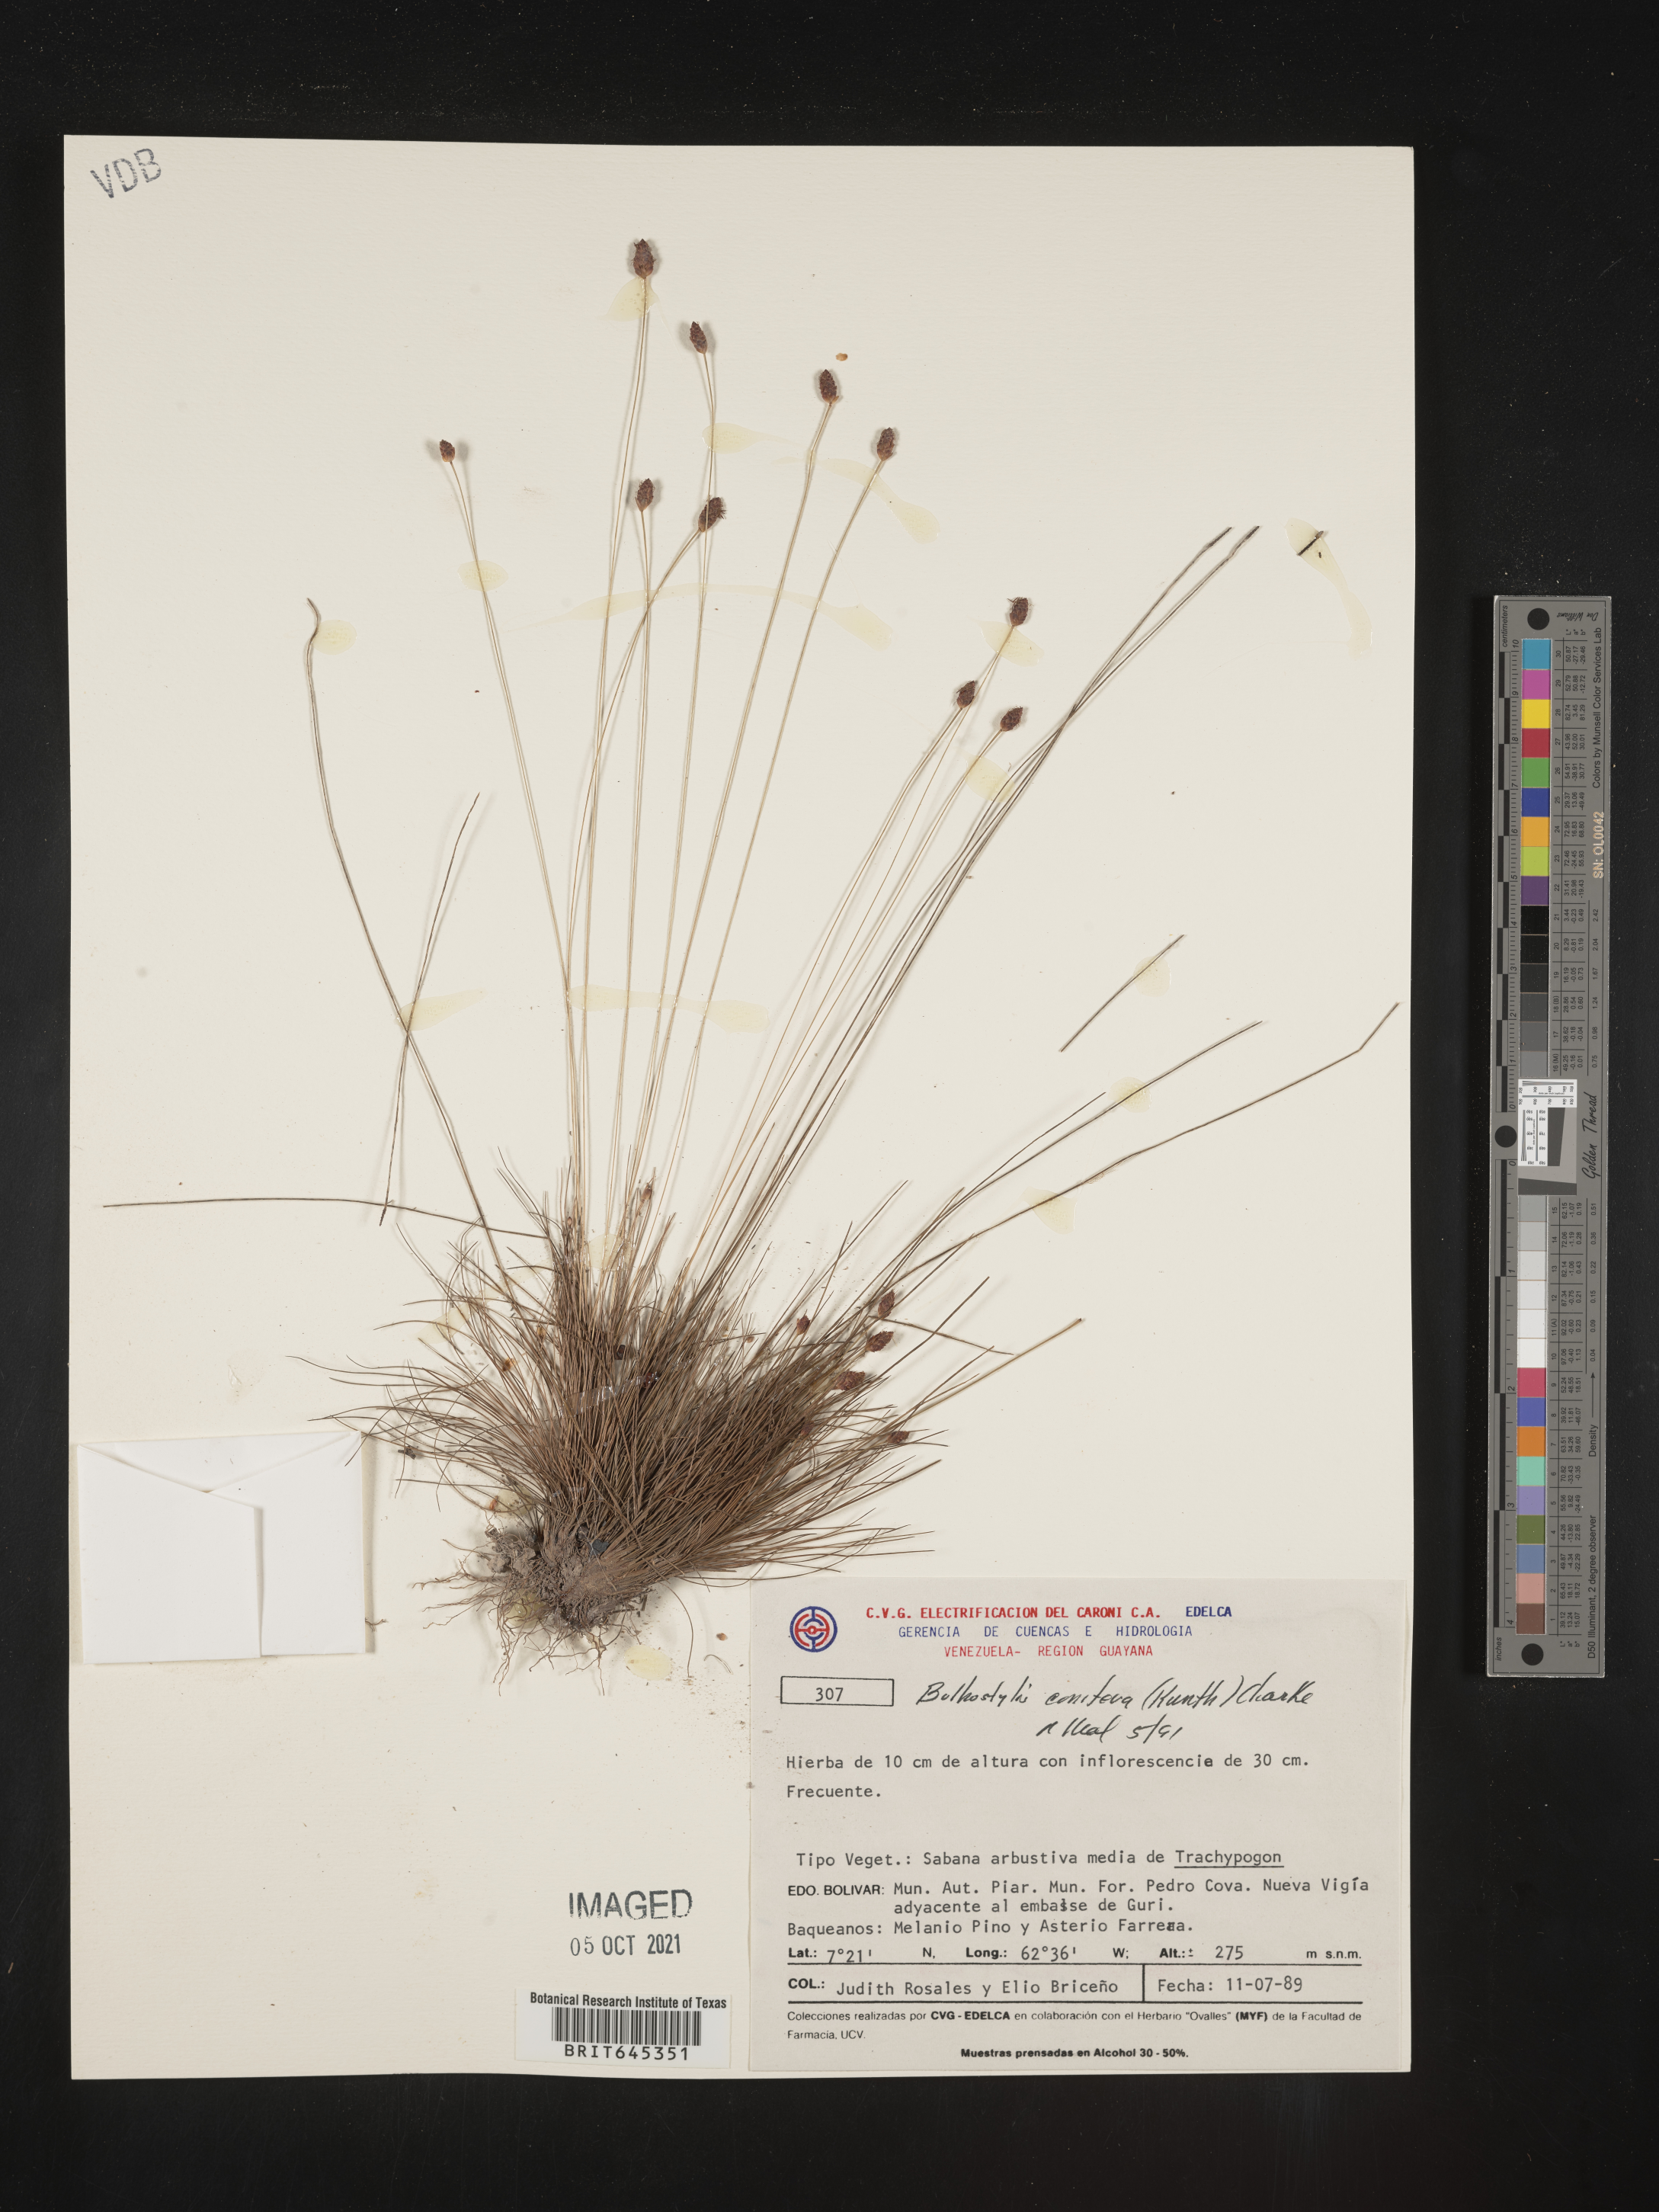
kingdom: Plantae
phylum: Tracheophyta
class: Liliopsida
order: Poales
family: Cyperaceae
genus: Bulbostylis
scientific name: Bulbostylis conifera
